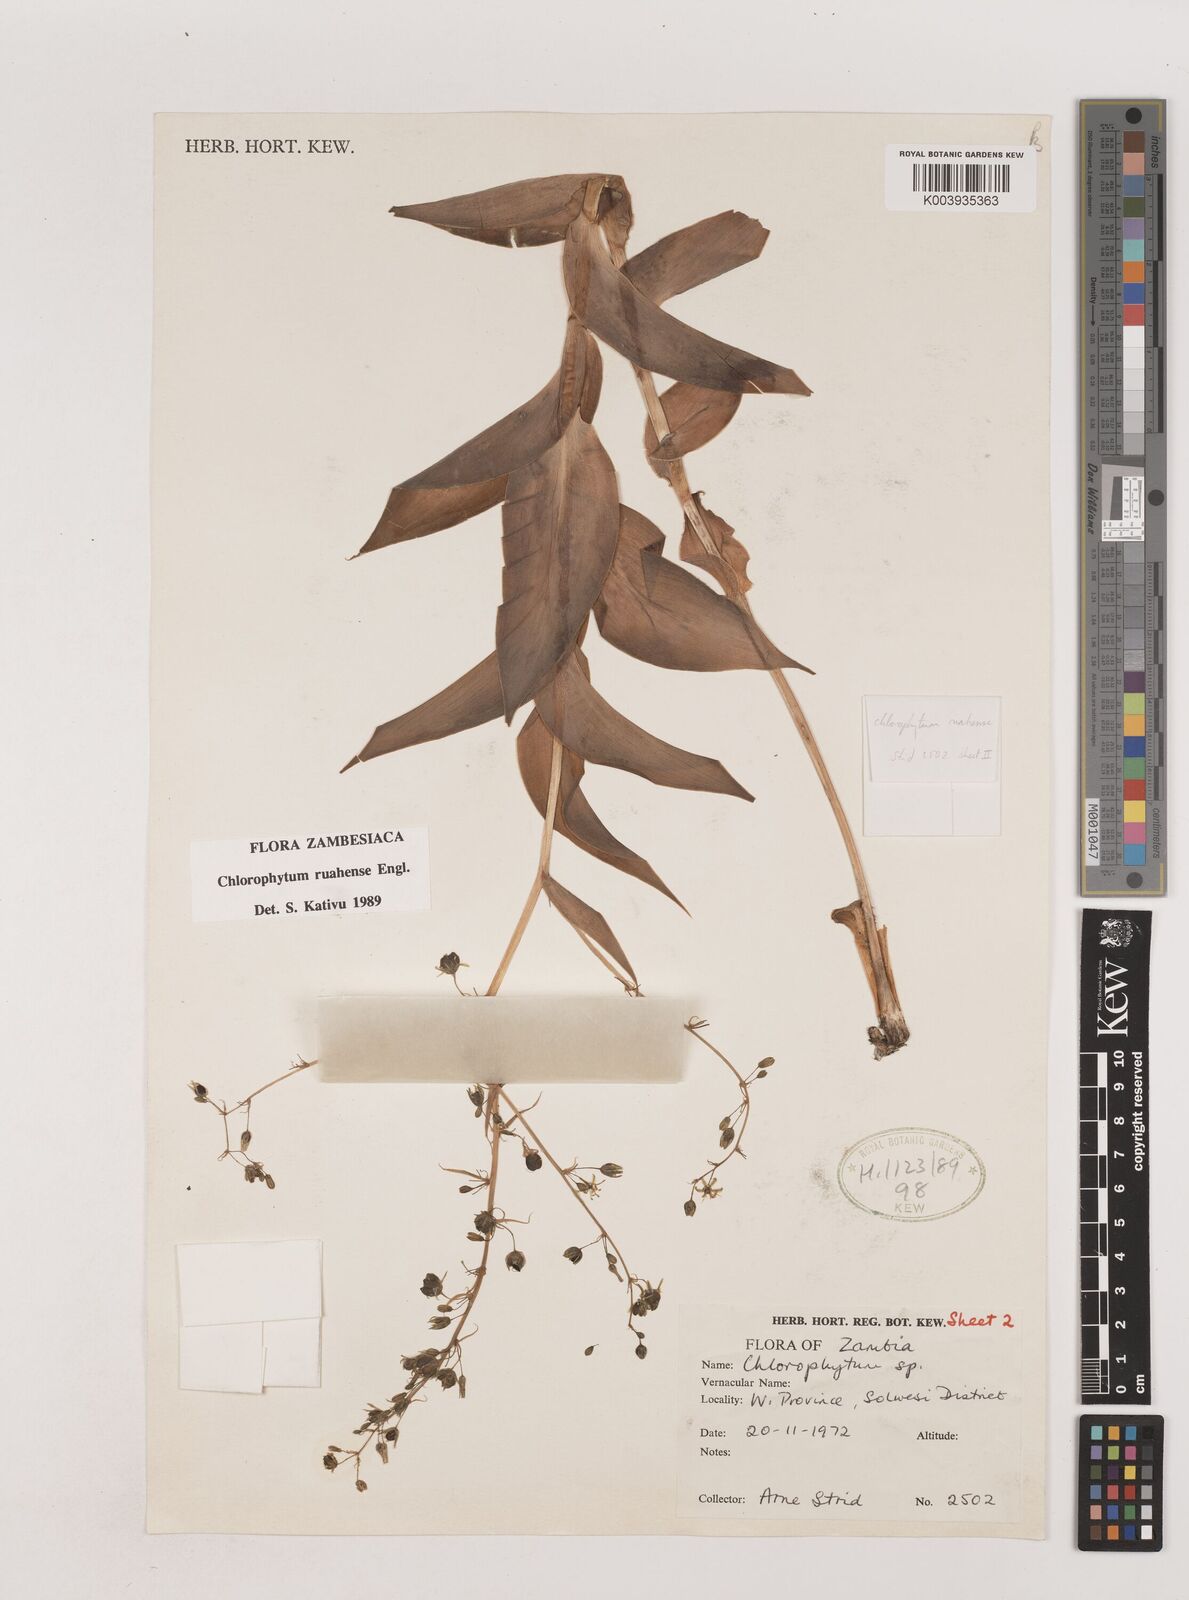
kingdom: Plantae
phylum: Tracheophyta
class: Liliopsida
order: Asparagales
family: Asparagaceae
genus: Chlorophytum
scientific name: Chlorophytum ruahense
